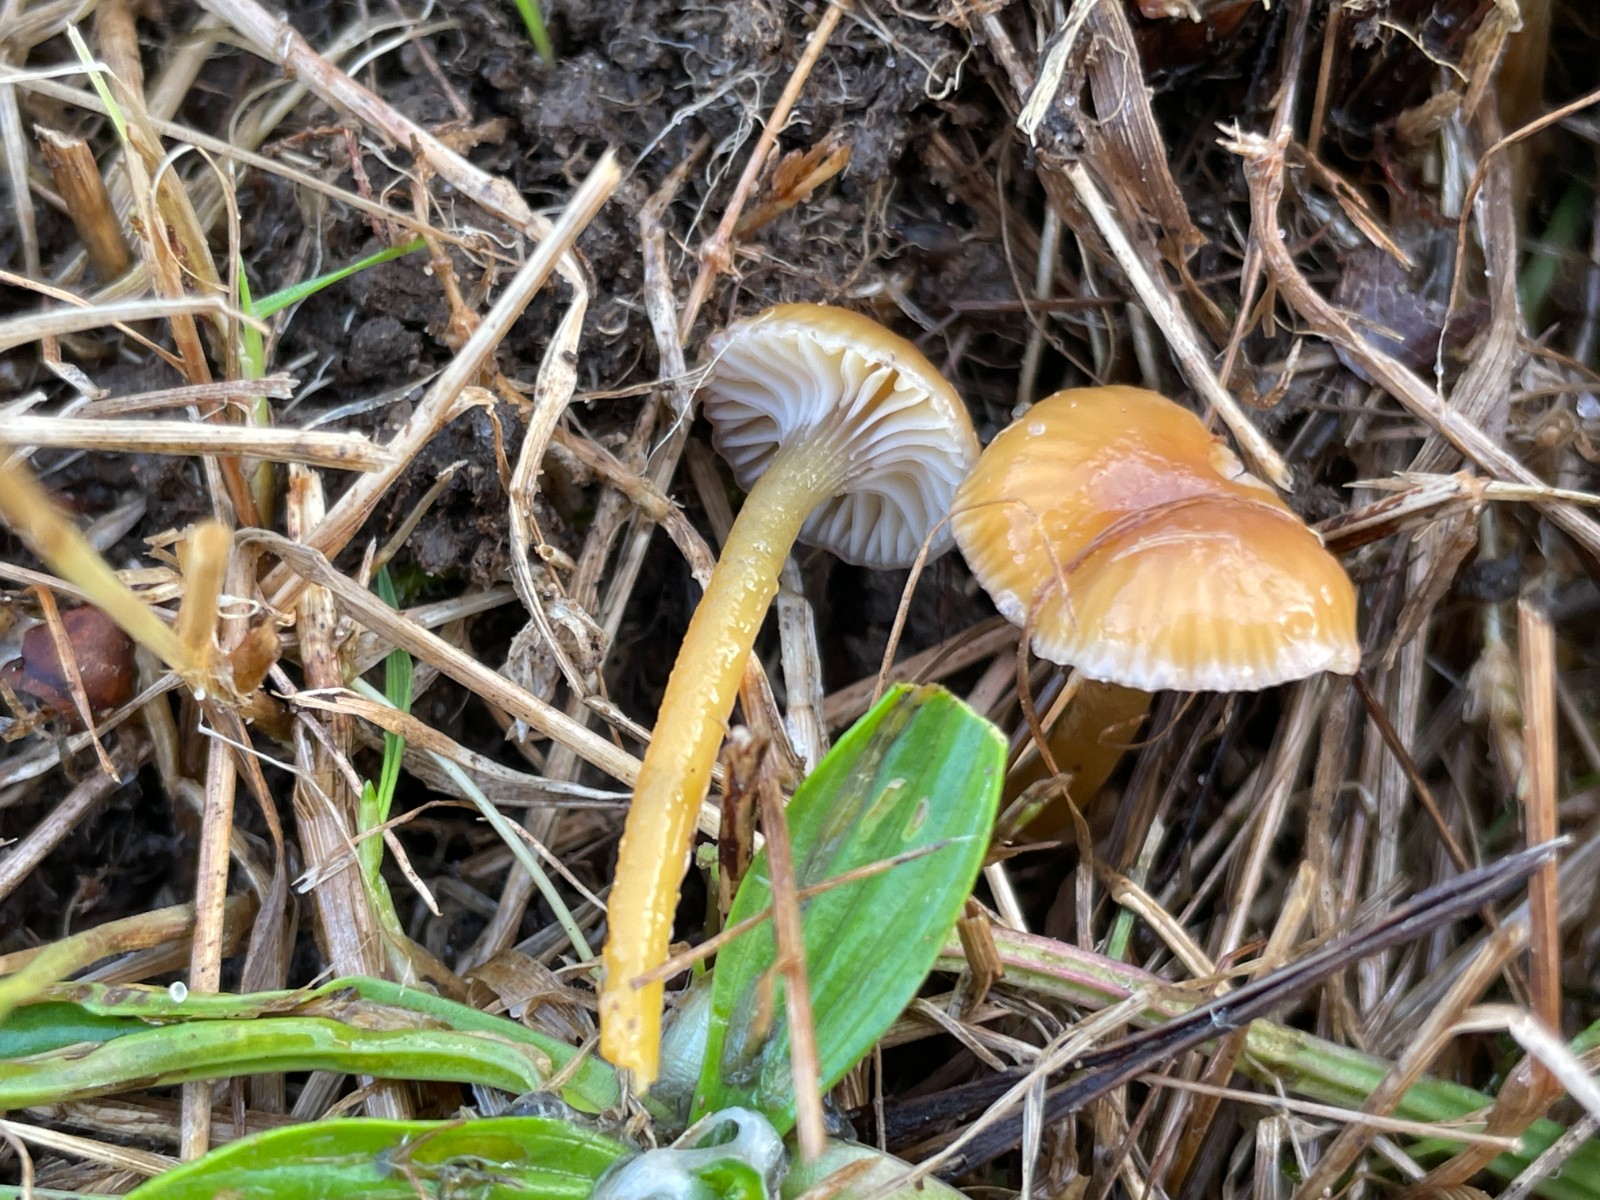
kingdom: Fungi
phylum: Basidiomycota
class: Agaricomycetes
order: Agaricales
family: Hygrophoraceae
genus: Gliophorus
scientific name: Gliophorus laetus
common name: brusk-vokshat
